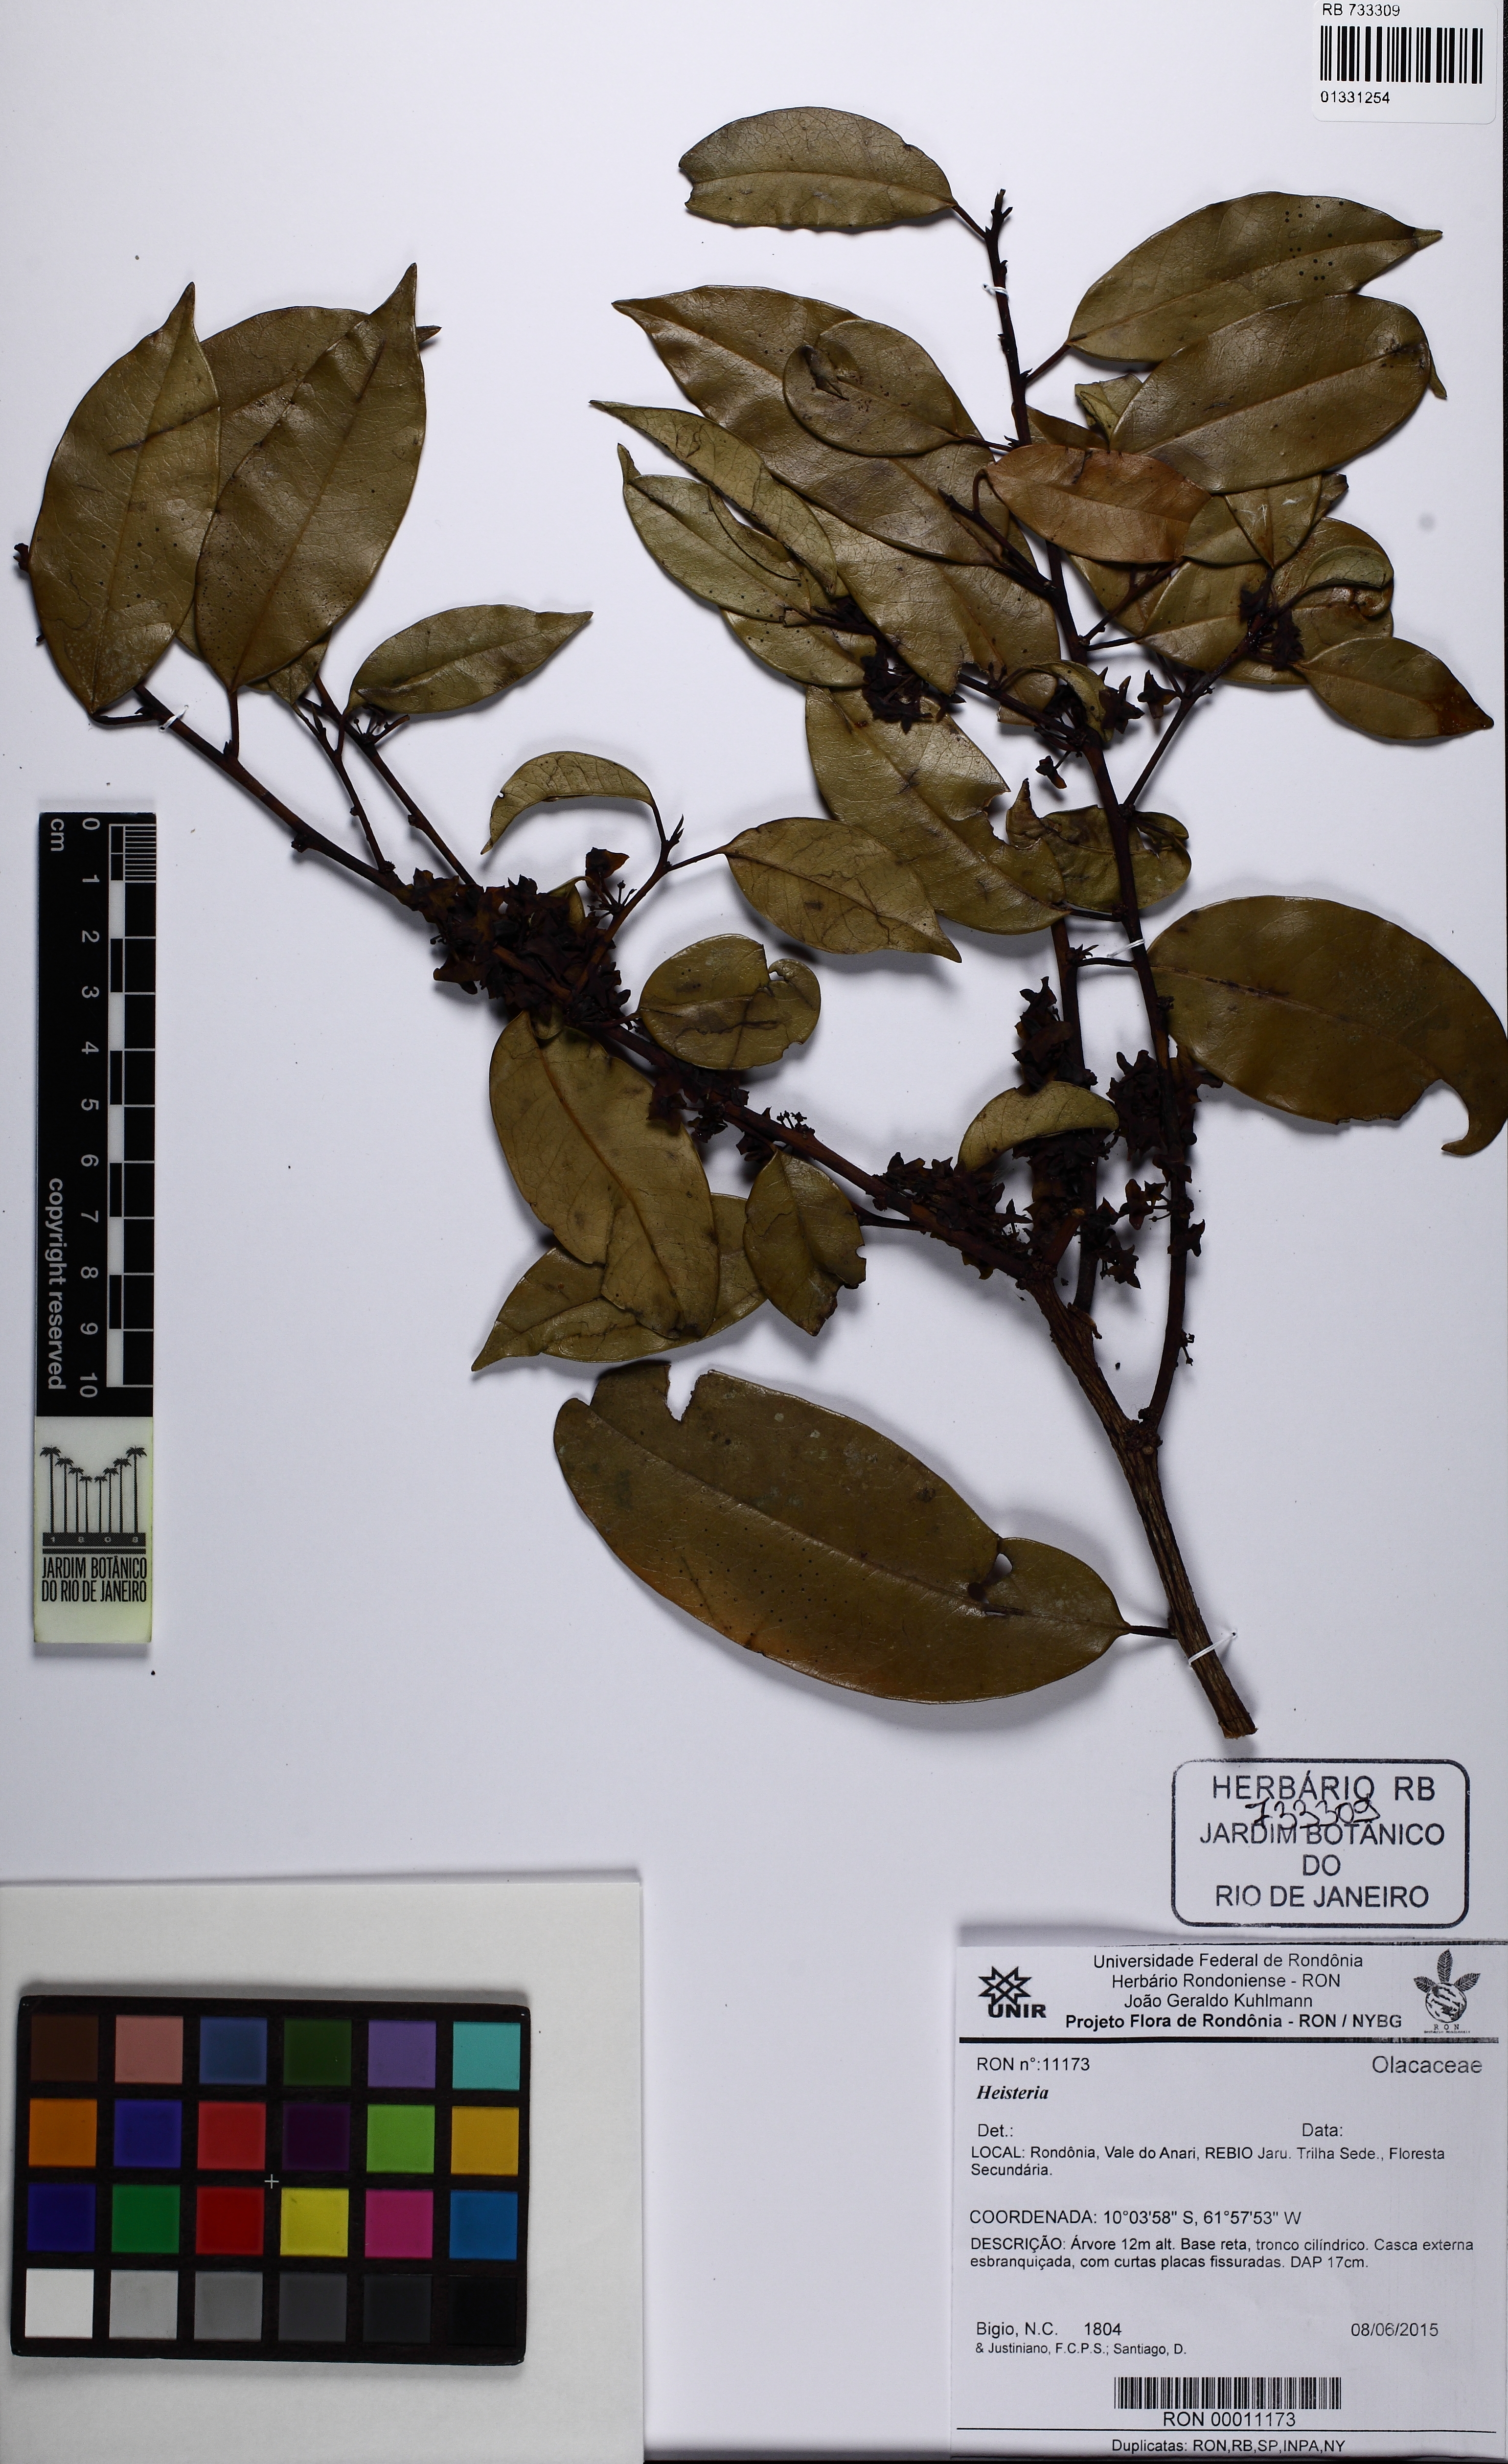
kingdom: Plantae
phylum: Tracheophyta
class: Magnoliopsida
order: Santalales
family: Erythropalaceae
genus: Heisteria
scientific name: Heisteria
